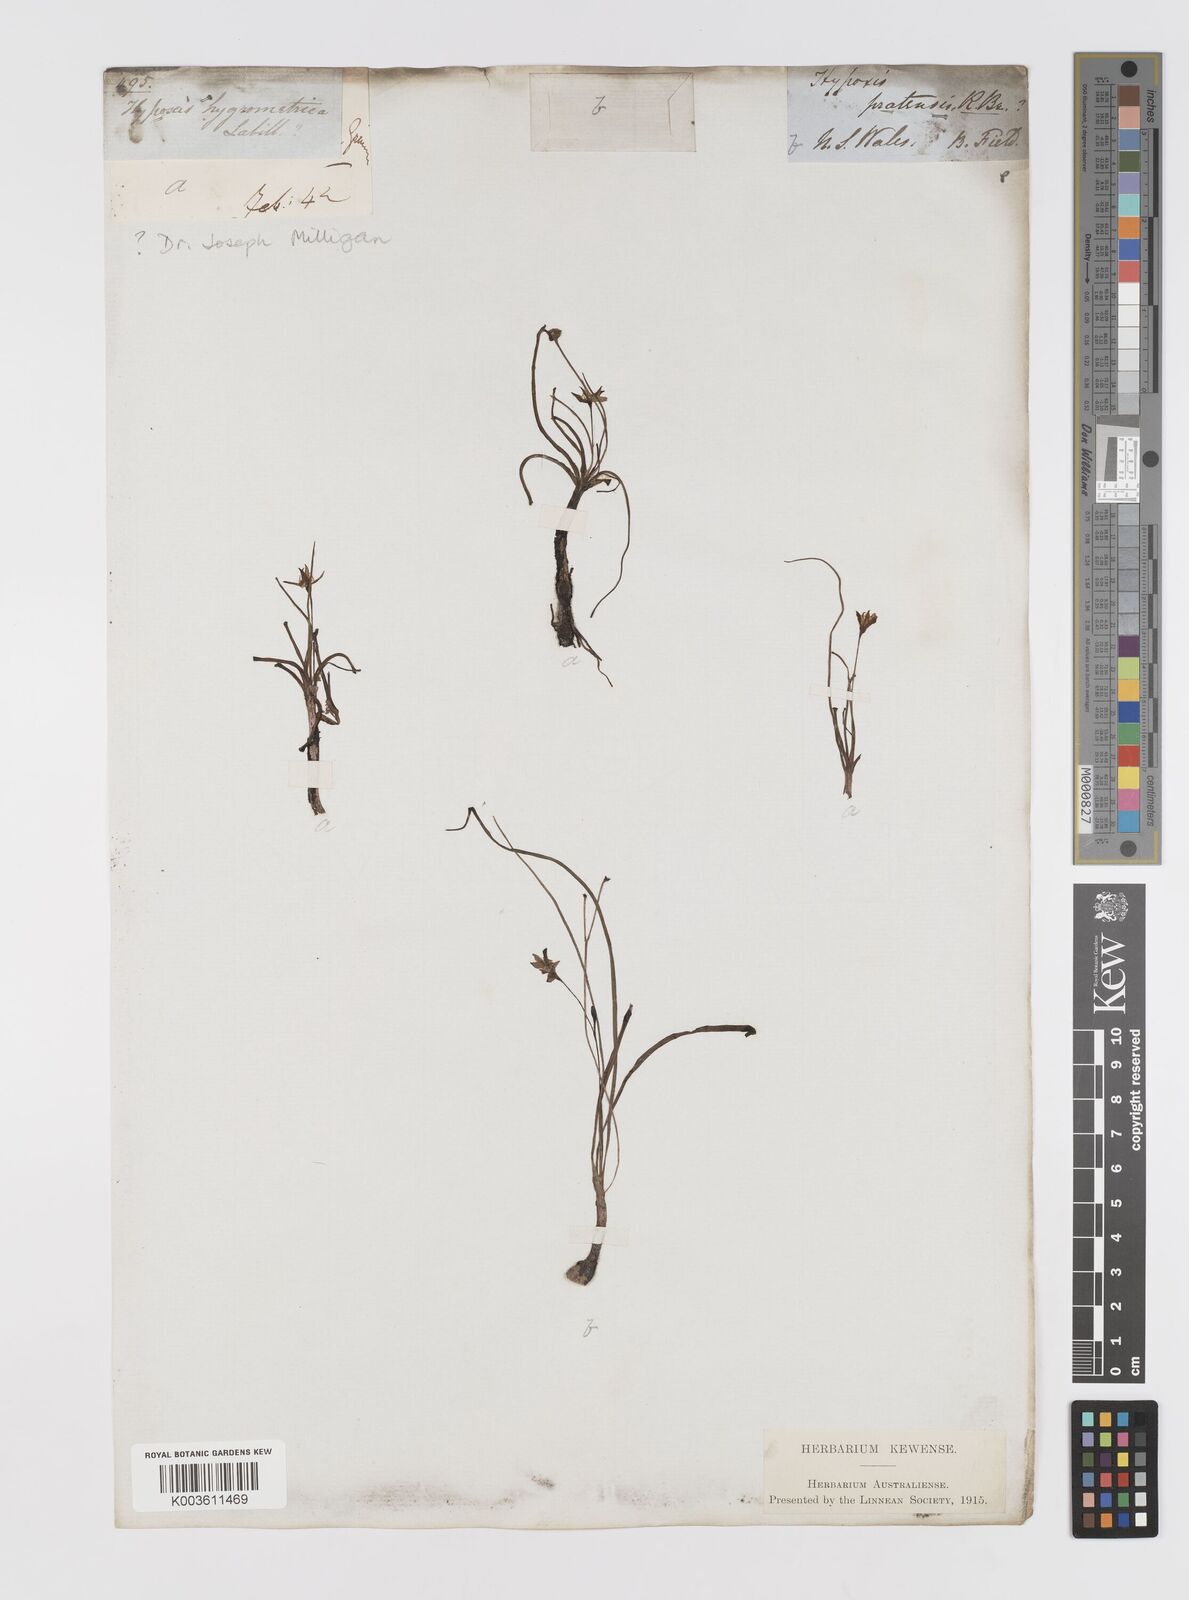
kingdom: Plantae
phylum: Tracheophyta
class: Liliopsida
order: Asparagales
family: Hypoxidaceae
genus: Hypoxis
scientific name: Hypoxis hygrometrica
